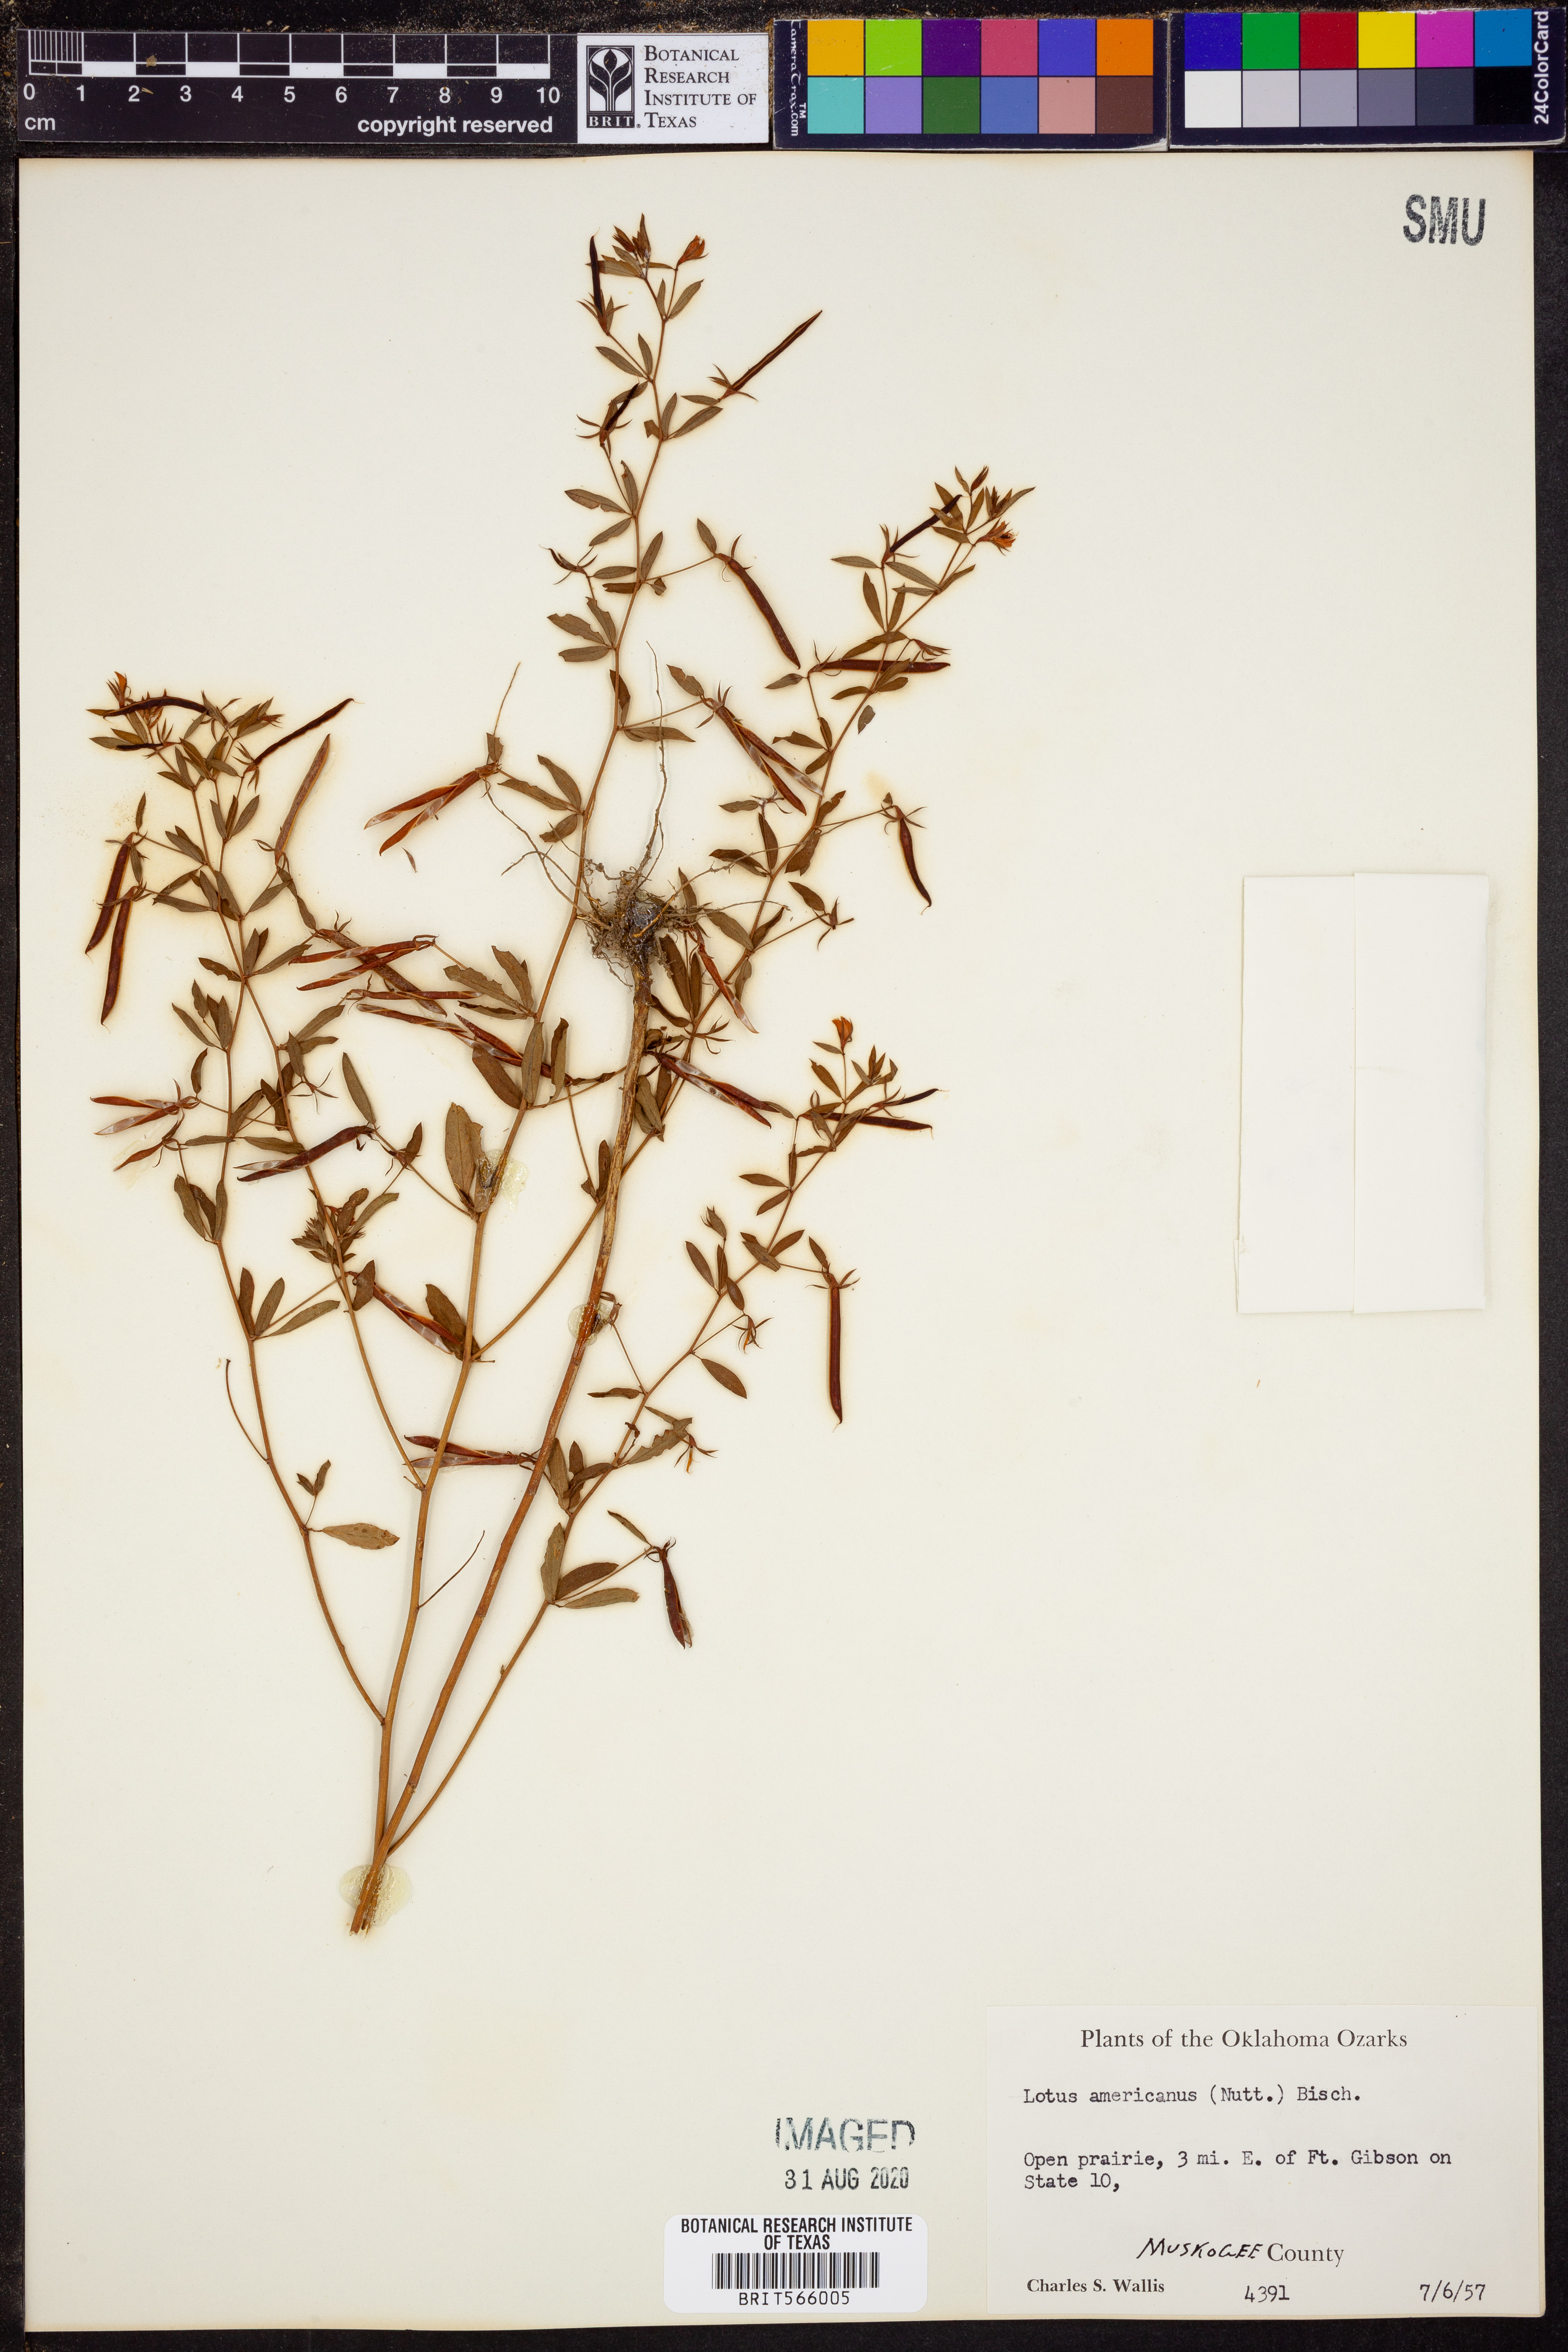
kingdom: Plantae
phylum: Tracheophyta
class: Magnoliopsida
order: Fabales
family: Fabaceae
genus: Acmispon
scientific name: Acmispon americanus
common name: American bird's-foot trefoil
